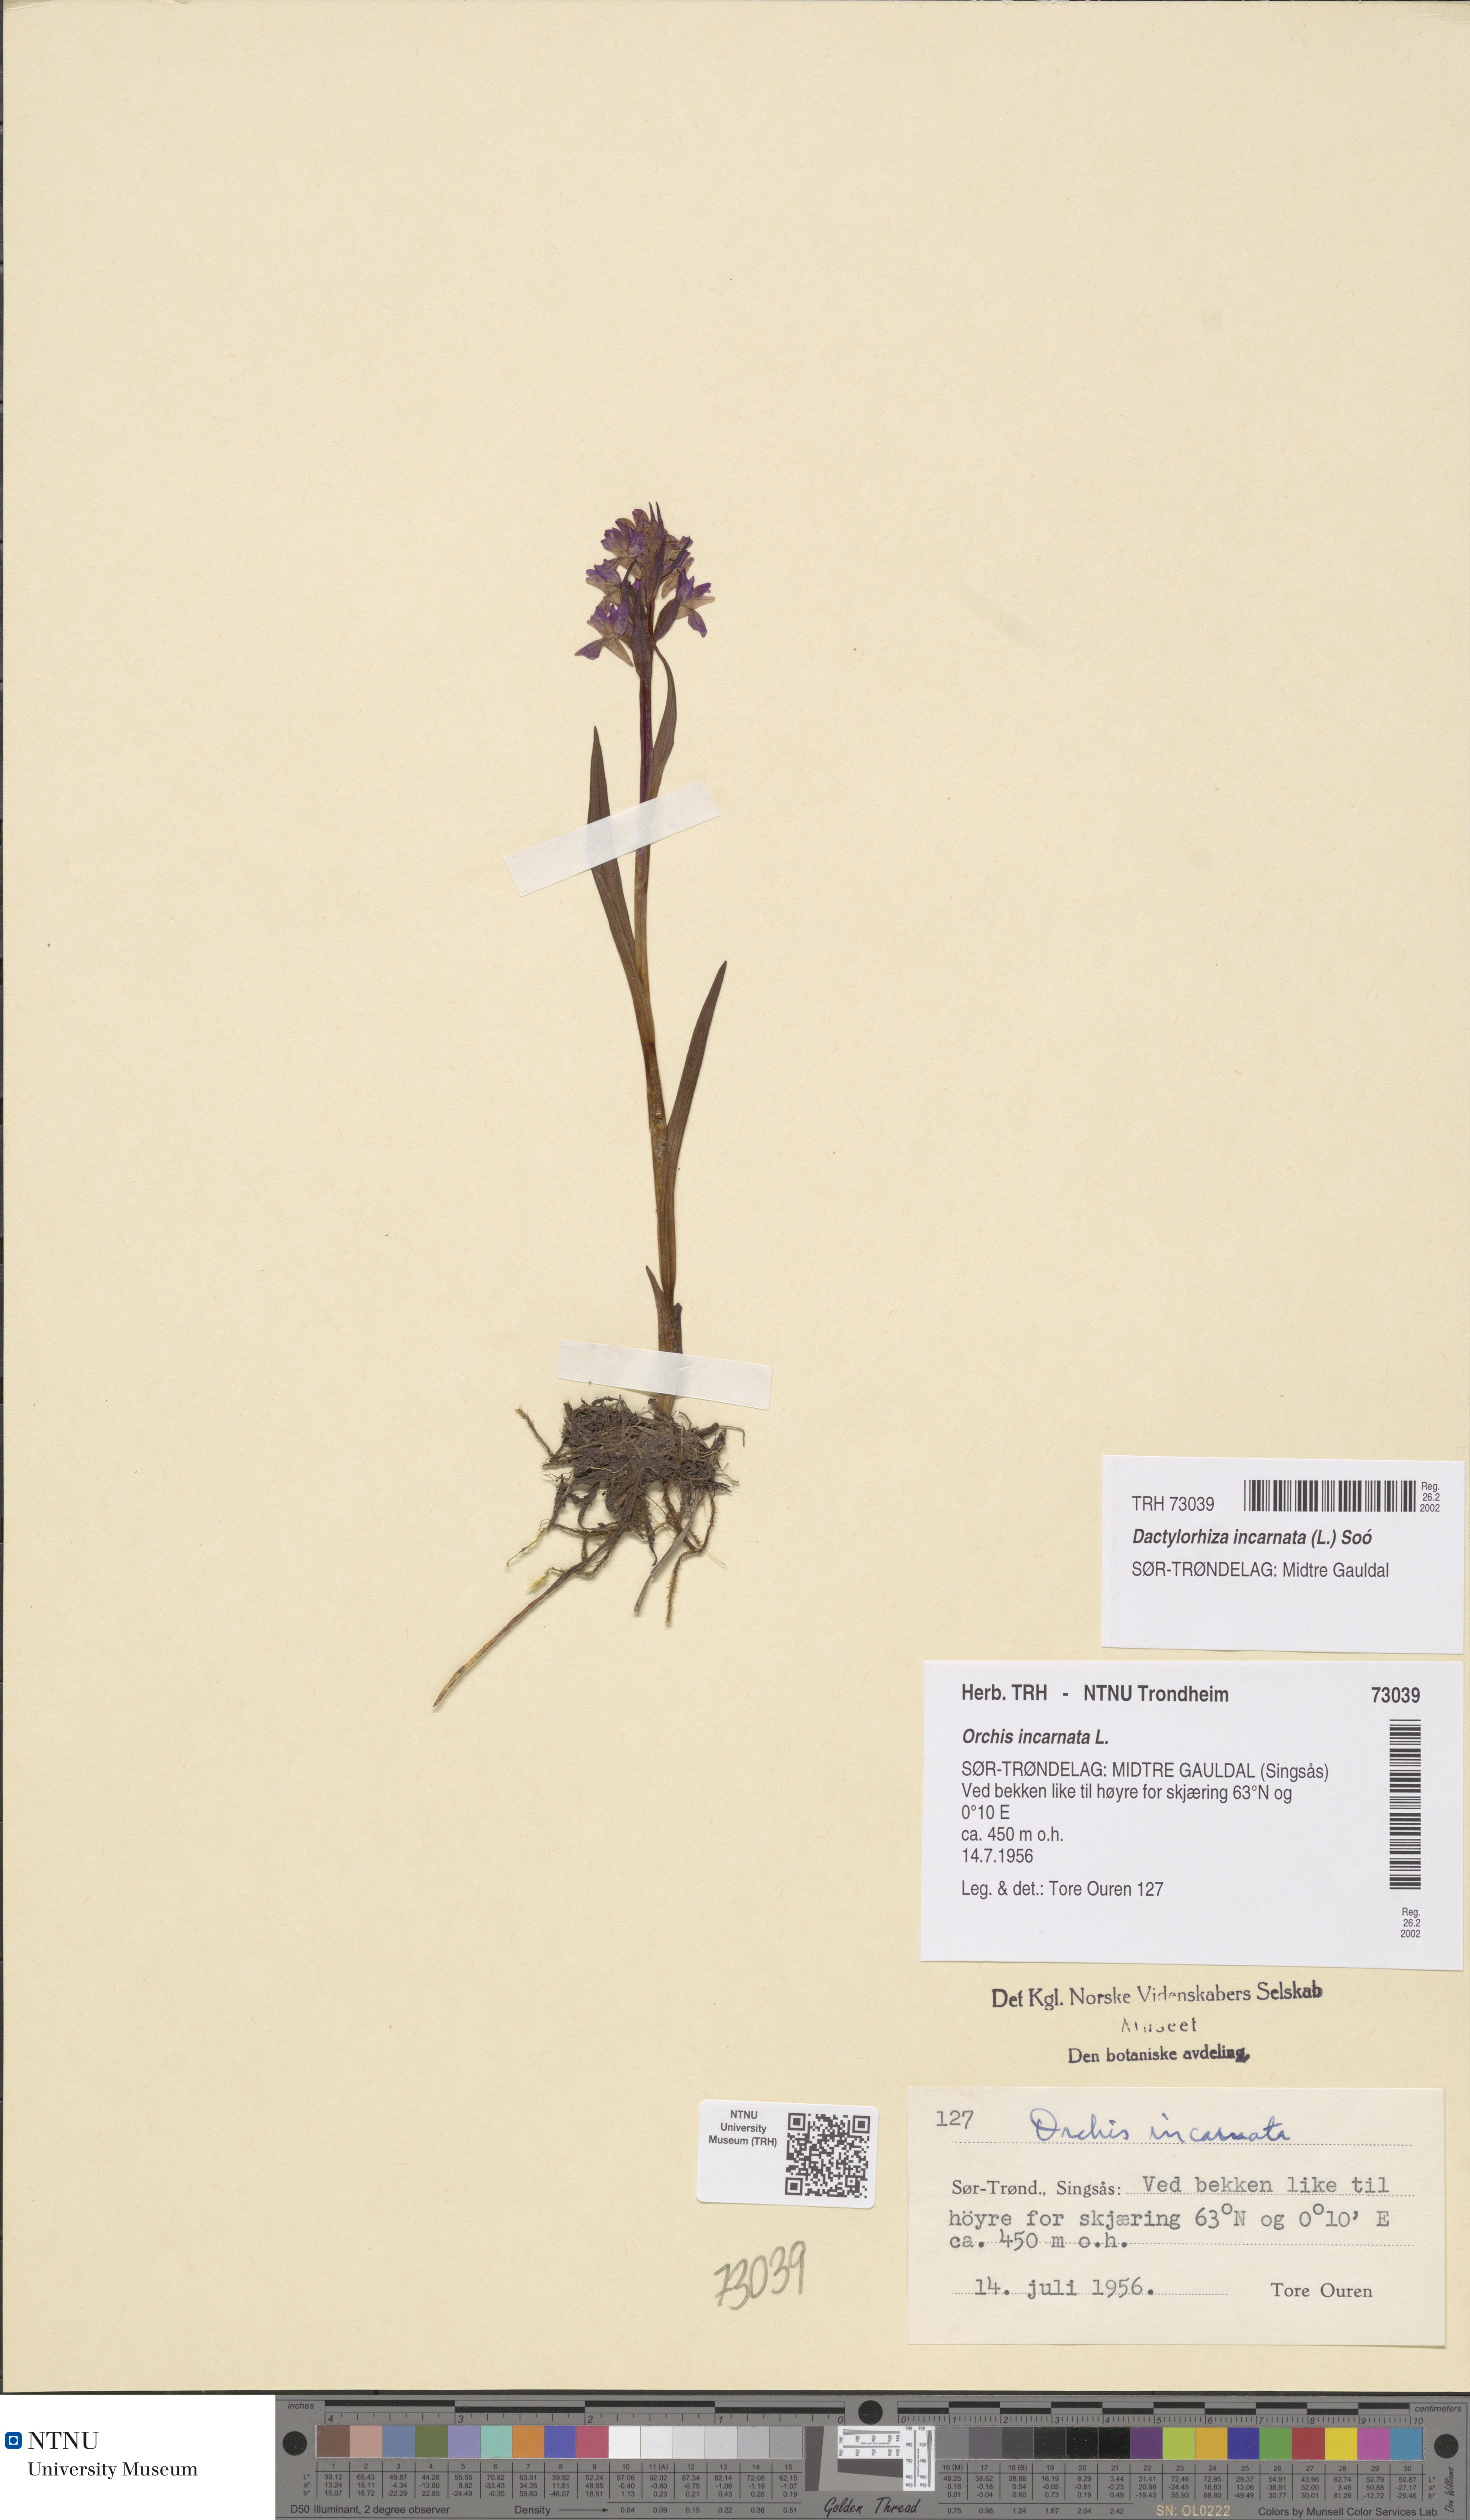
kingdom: Plantae
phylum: Tracheophyta
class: Liliopsida
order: Asparagales
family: Orchidaceae
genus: Dactylorhiza
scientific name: Dactylorhiza incarnata
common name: Early marsh-orchid
